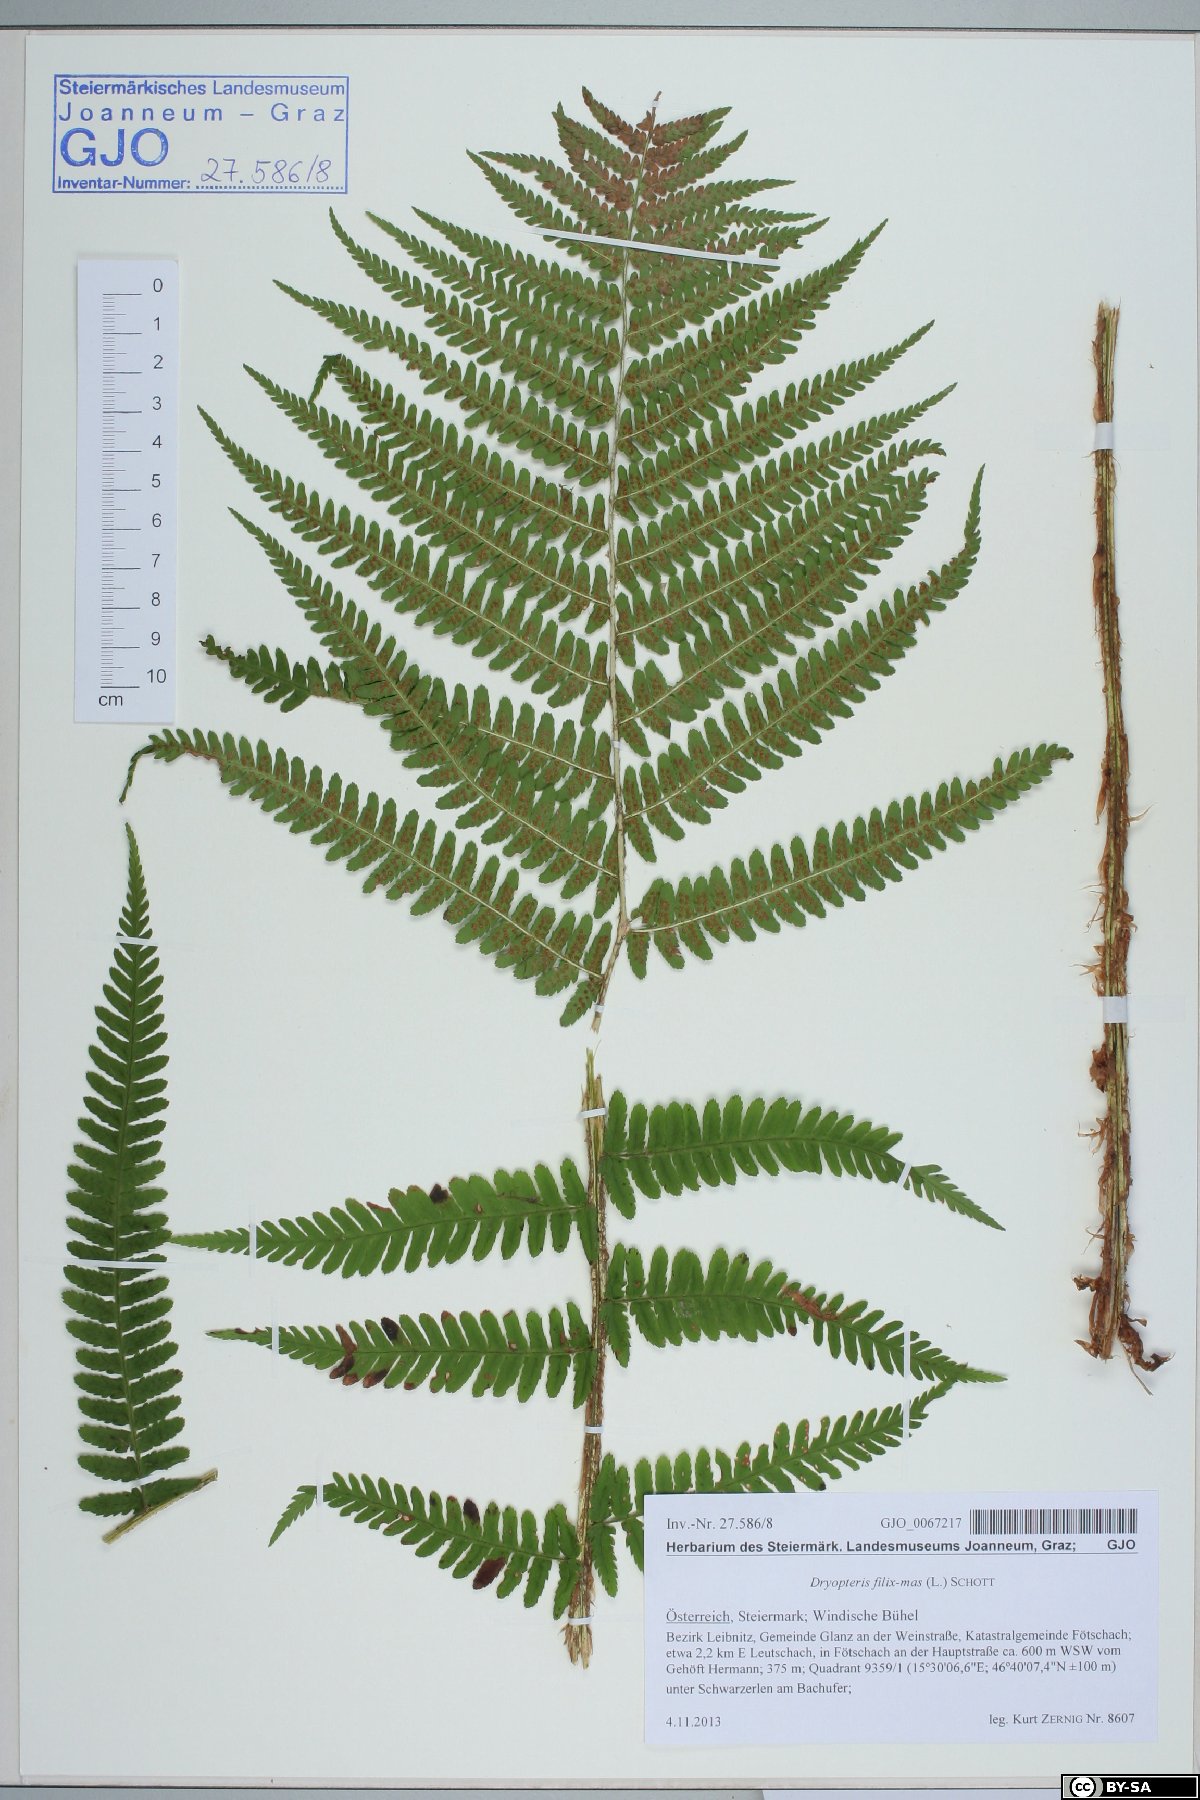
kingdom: Plantae
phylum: Tracheophyta
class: Polypodiopsida
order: Polypodiales
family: Dryopteridaceae
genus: Dryopteris
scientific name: Dryopteris filix-mas
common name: Male fern
